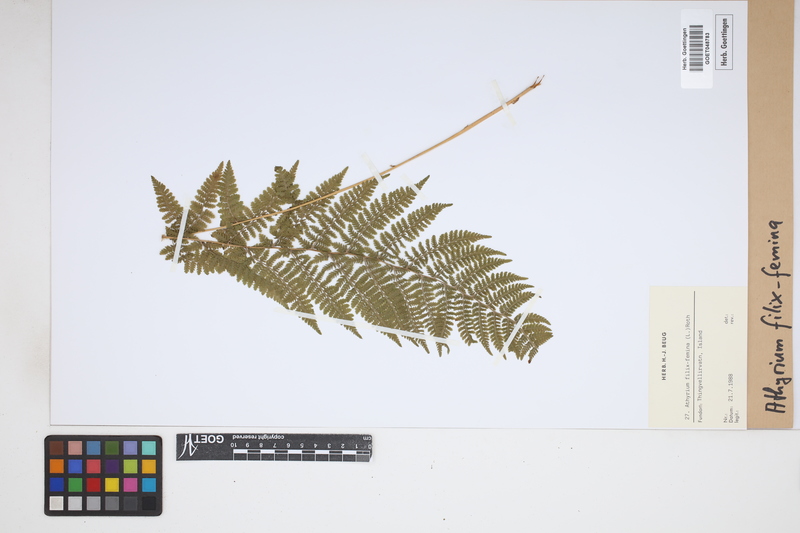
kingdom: Plantae
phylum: Tracheophyta
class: Polypodiopsida
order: Polypodiales
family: Athyriaceae
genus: Athyrium
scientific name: Athyrium filix-femina
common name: Lady fern
